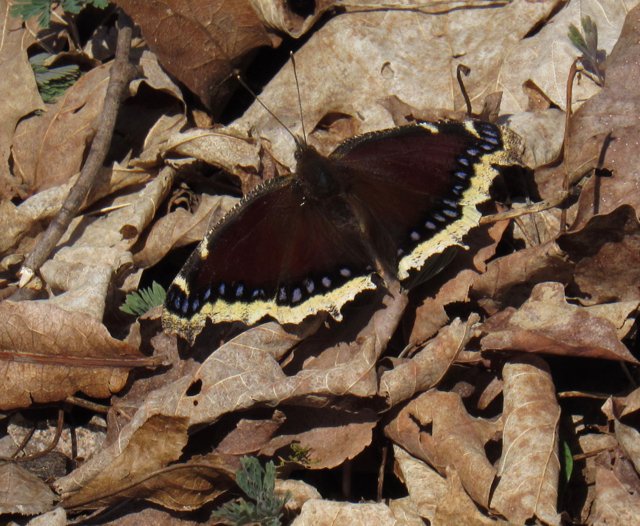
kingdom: Animalia
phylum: Arthropoda
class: Insecta
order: Lepidoptera
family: Nymphalidae
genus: Nymphalis
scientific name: Nymphalis antiopa
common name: Mourning Cloak
